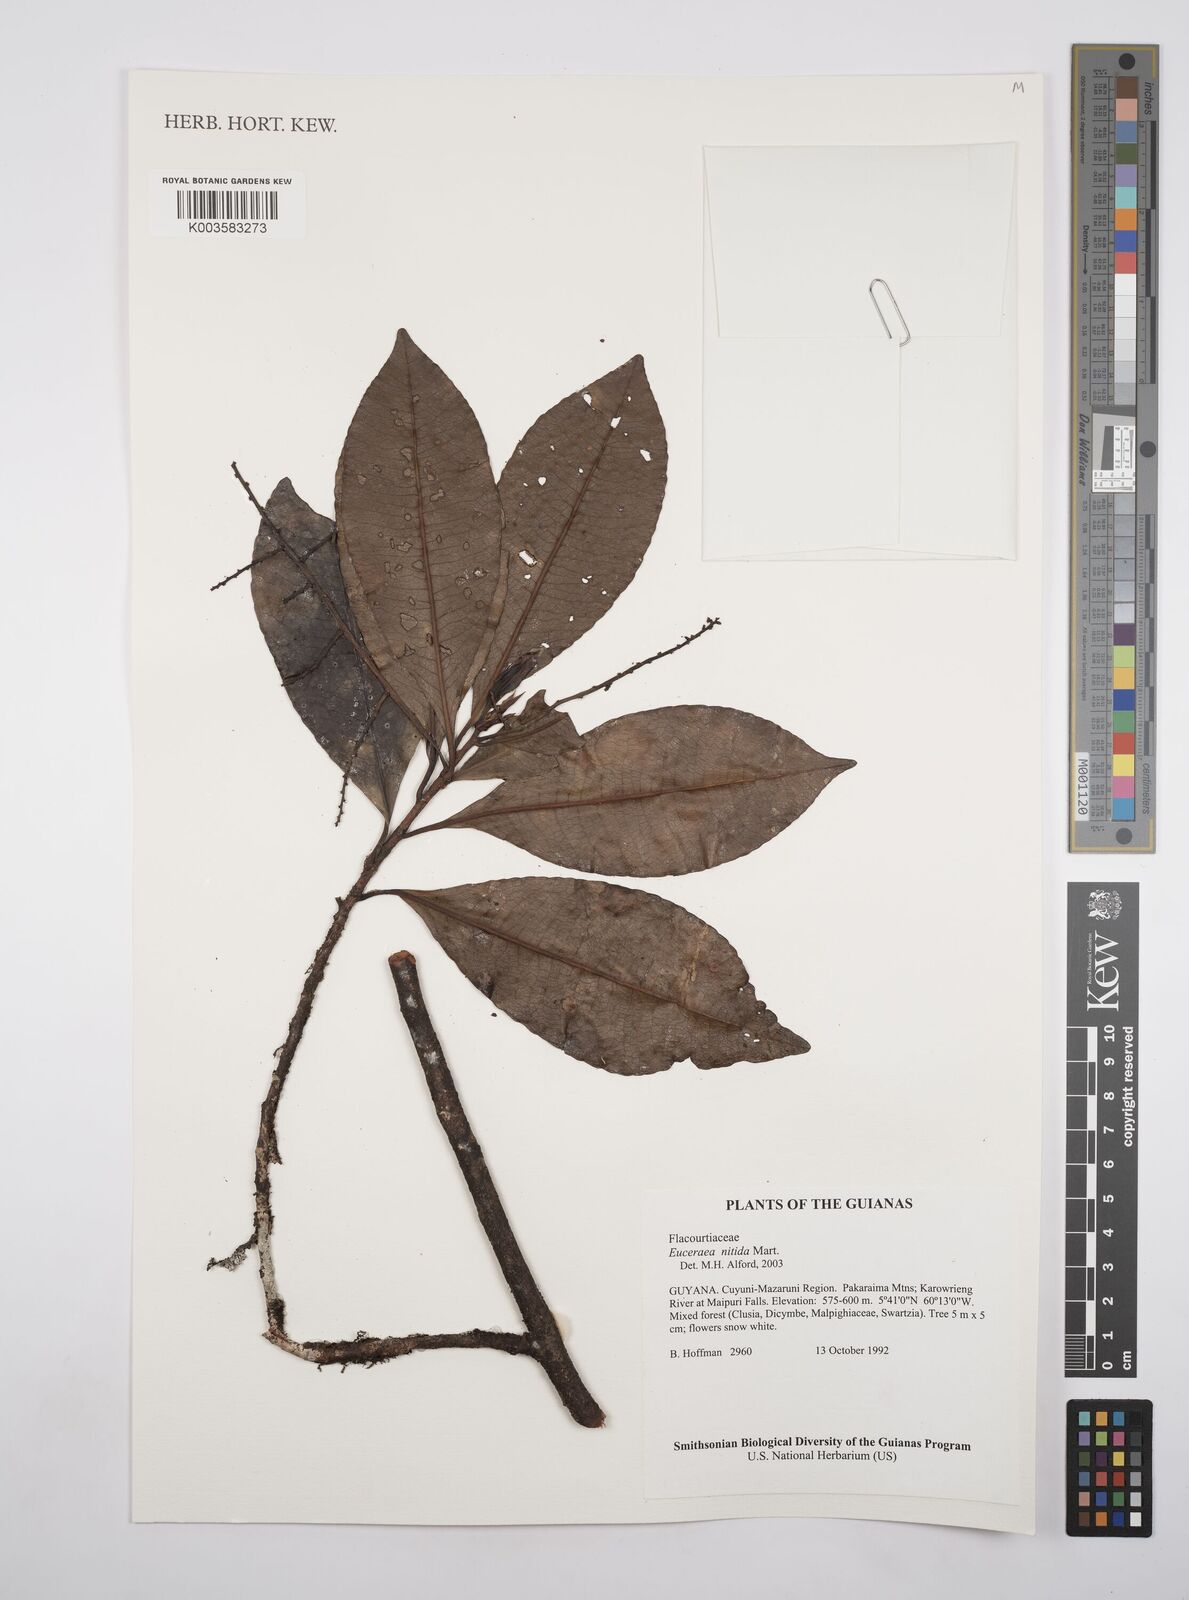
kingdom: Plantae
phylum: Tracheophyta
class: Magnoliopsida
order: Malpighiales
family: Salicaceae
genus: Casearia
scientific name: Casearia euceraea
